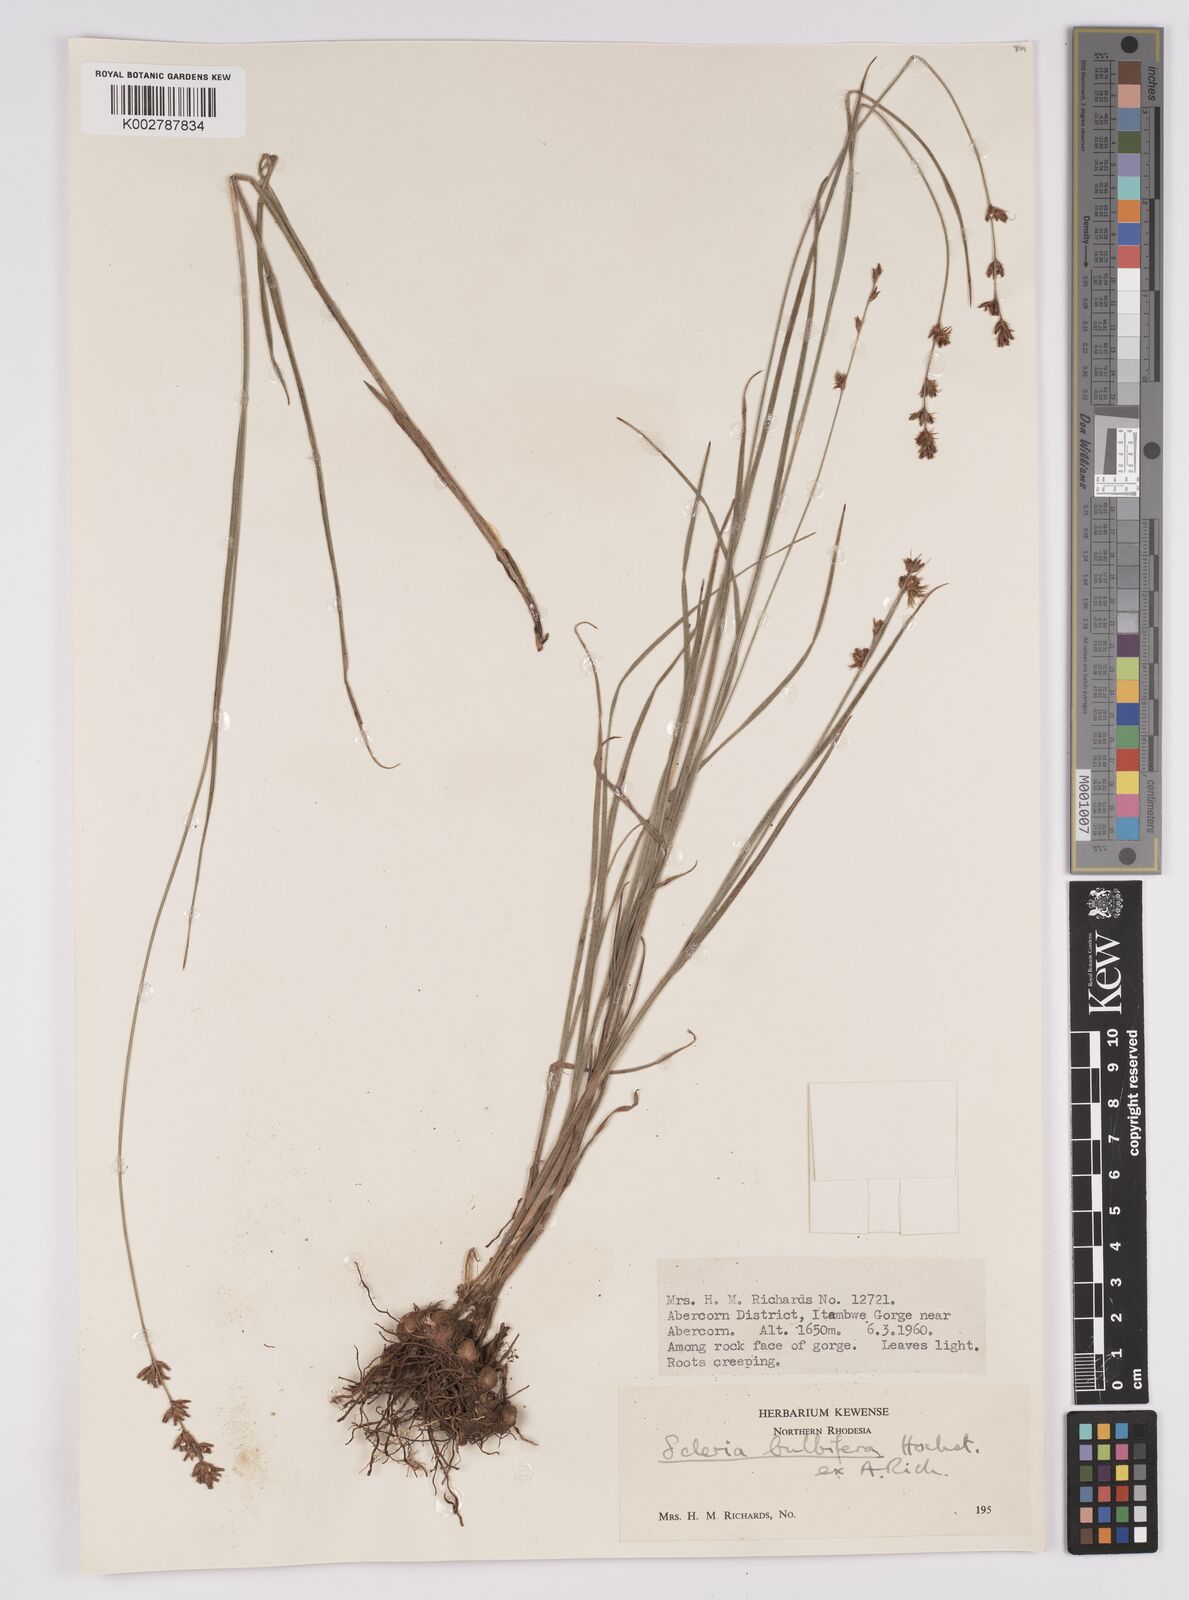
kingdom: Plantae
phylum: Tracheophyta
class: Liliopsida
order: Poales
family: Cyperaceae
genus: Scleria
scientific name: Scleria bulbifera
